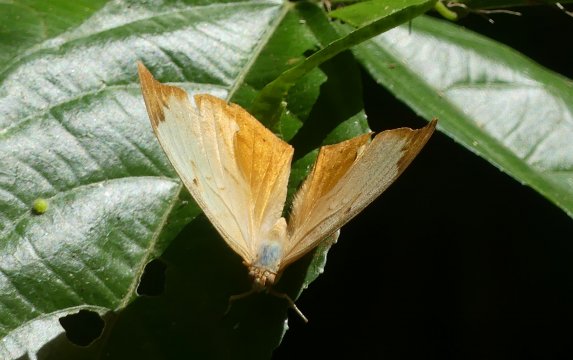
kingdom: Animalia
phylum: Arthropoda
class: Insecta
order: Lepidoptera
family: Nymphalidae
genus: Zaretis
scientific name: Zaretis itys
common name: Seasonal Leafwing
